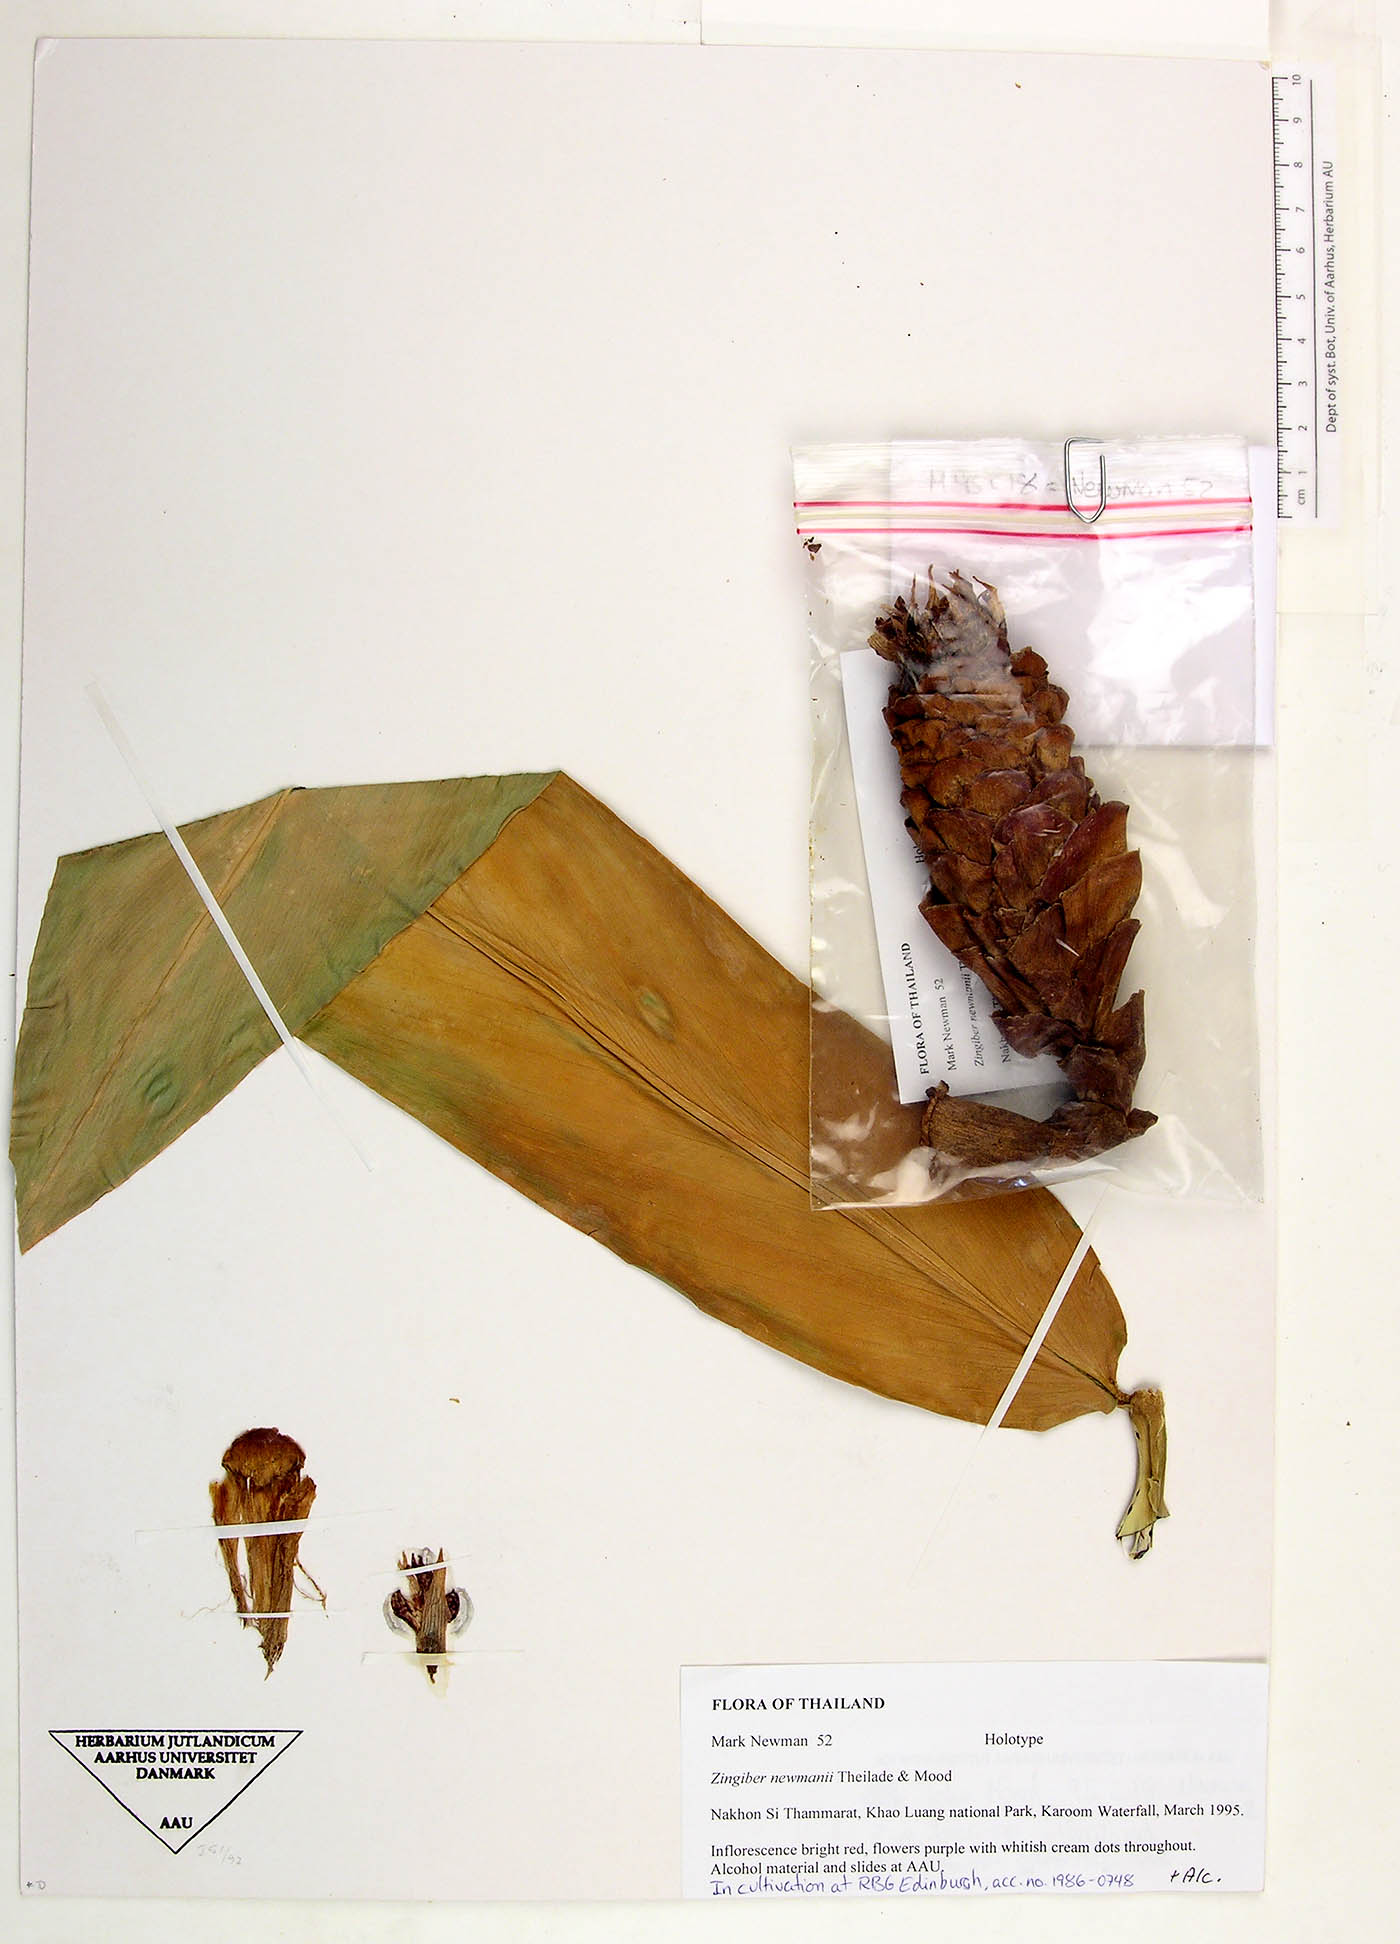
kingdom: Plantae
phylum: Tracheophyta
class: Liliopsida
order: Zingiberales
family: Zingiberaceae
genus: Zingiber
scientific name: Zingiber montanum
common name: Bengal ginger
